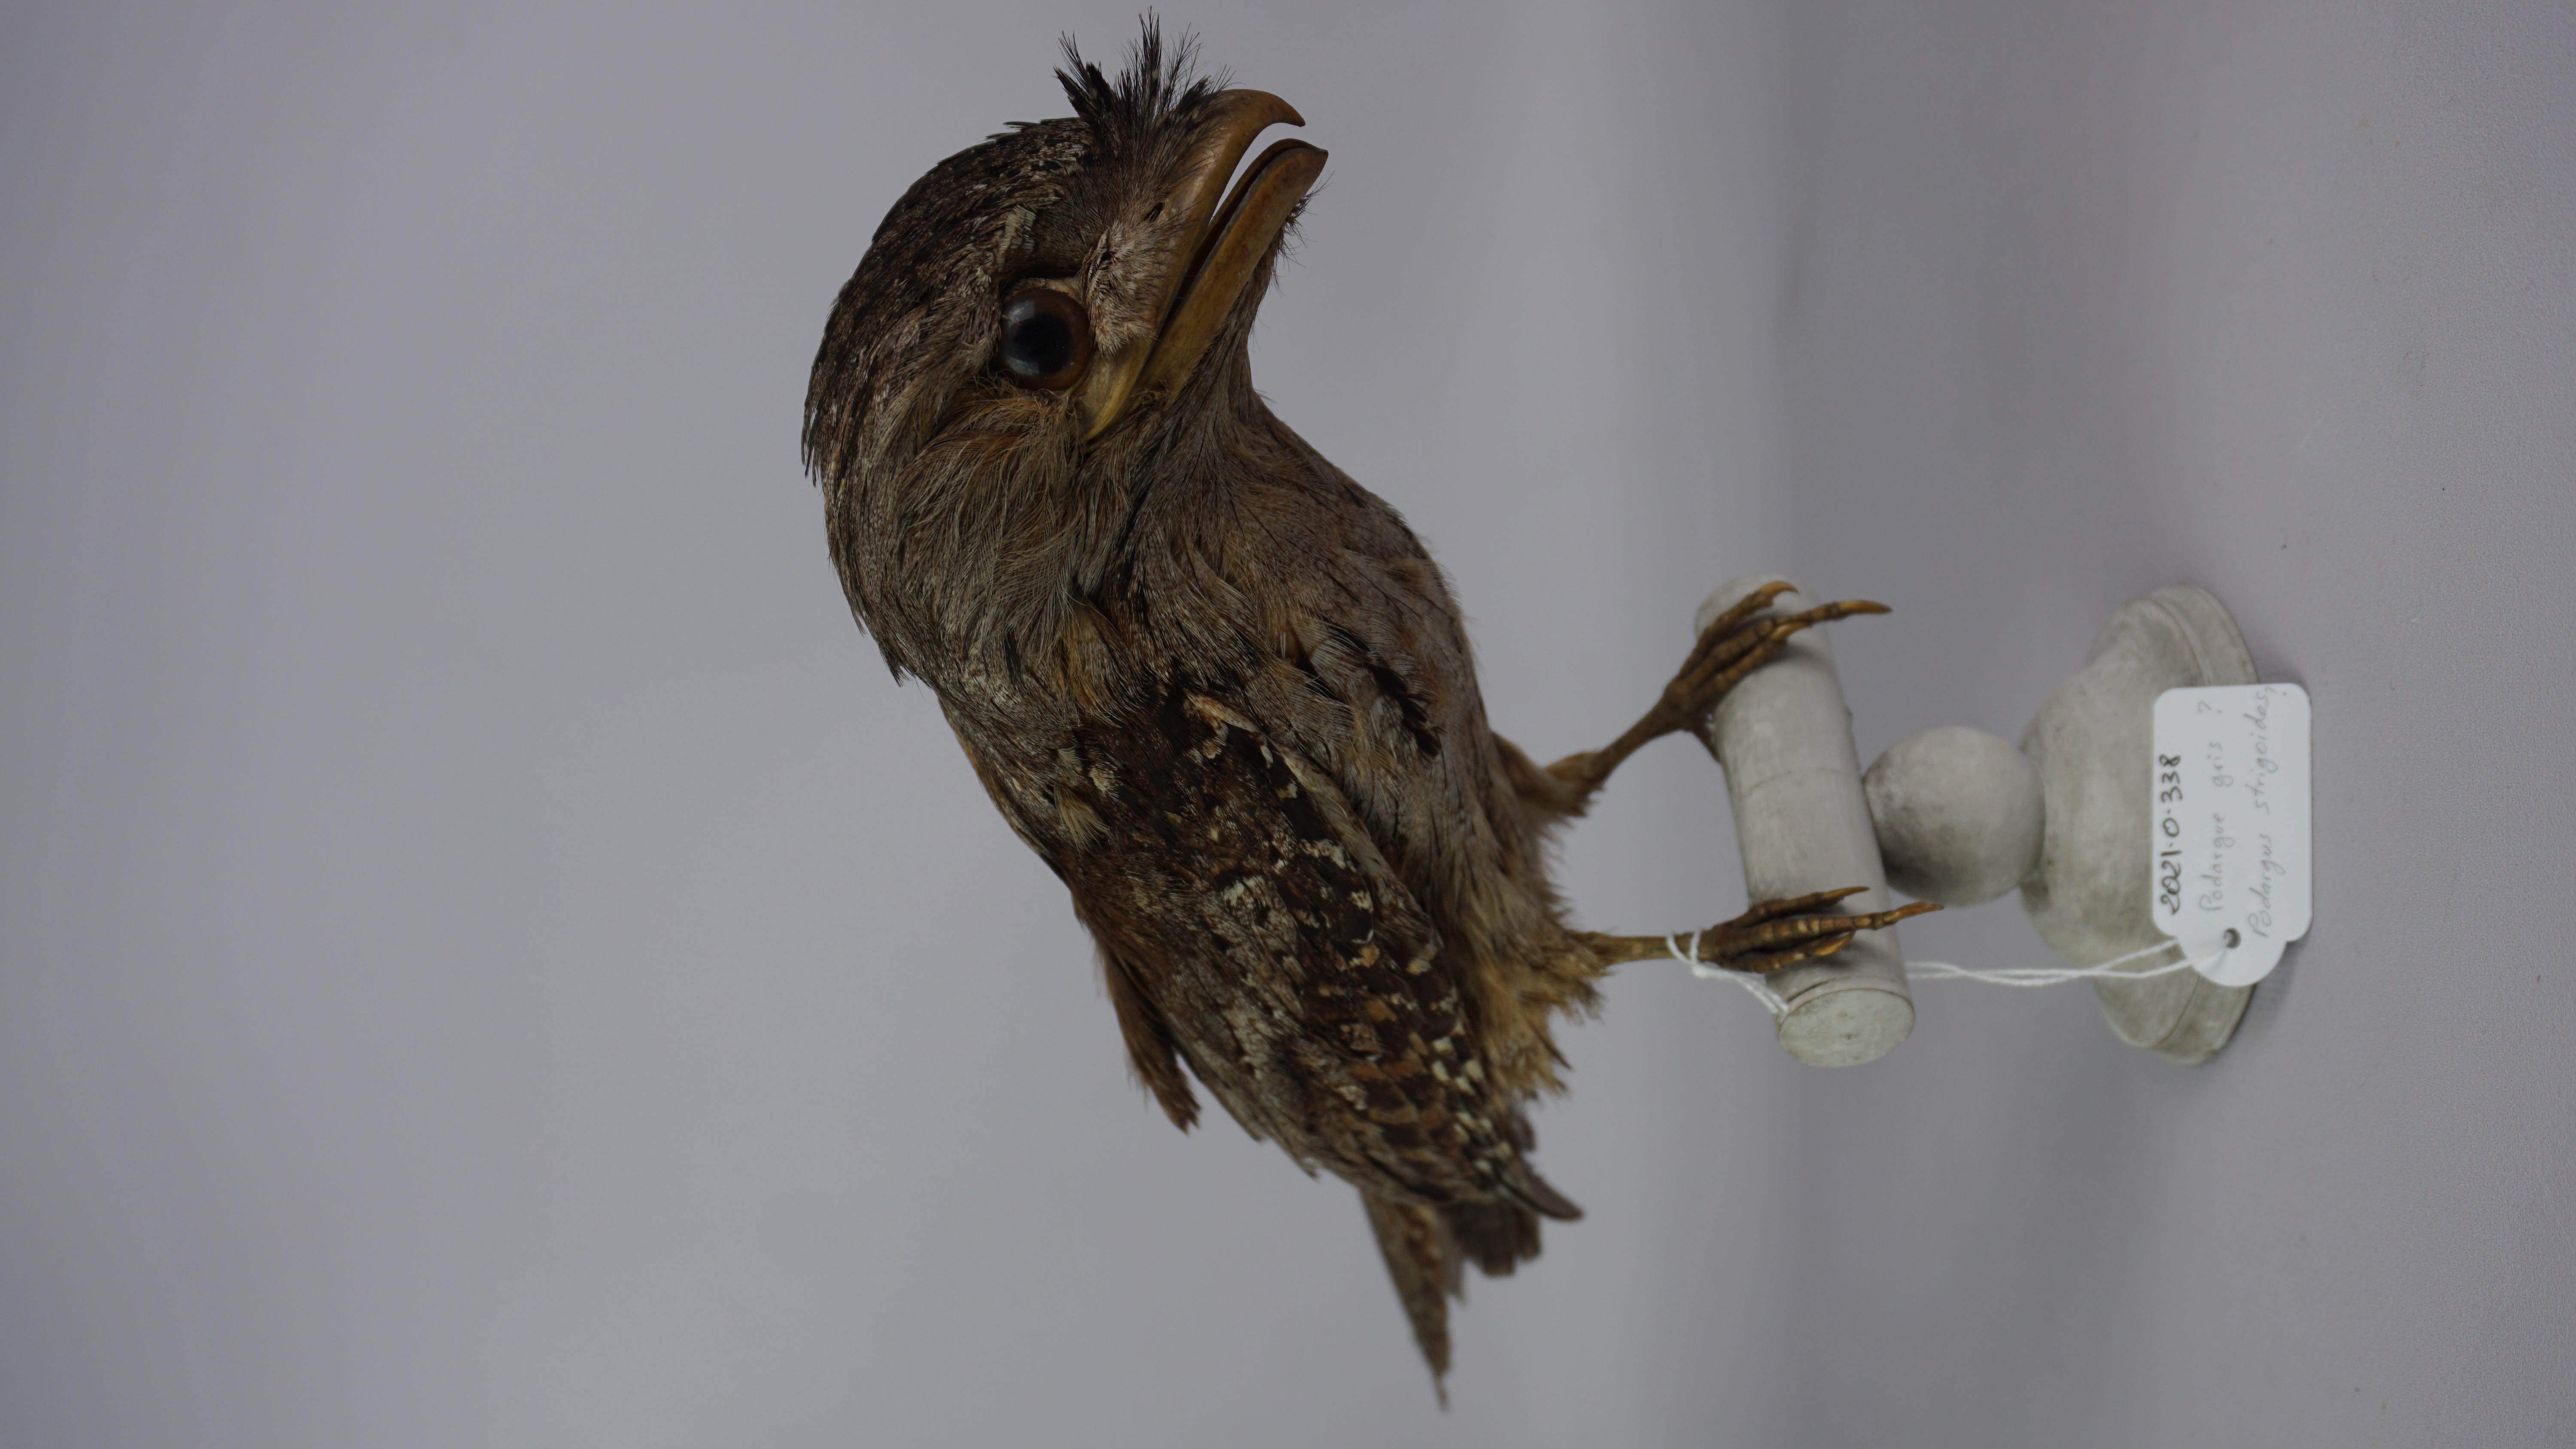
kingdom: Animalia
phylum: Chordata
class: Aves
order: Caprimulgiformes
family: Podargidae
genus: Podargus
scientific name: Podargus strigoides
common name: Tawny frogmouth
